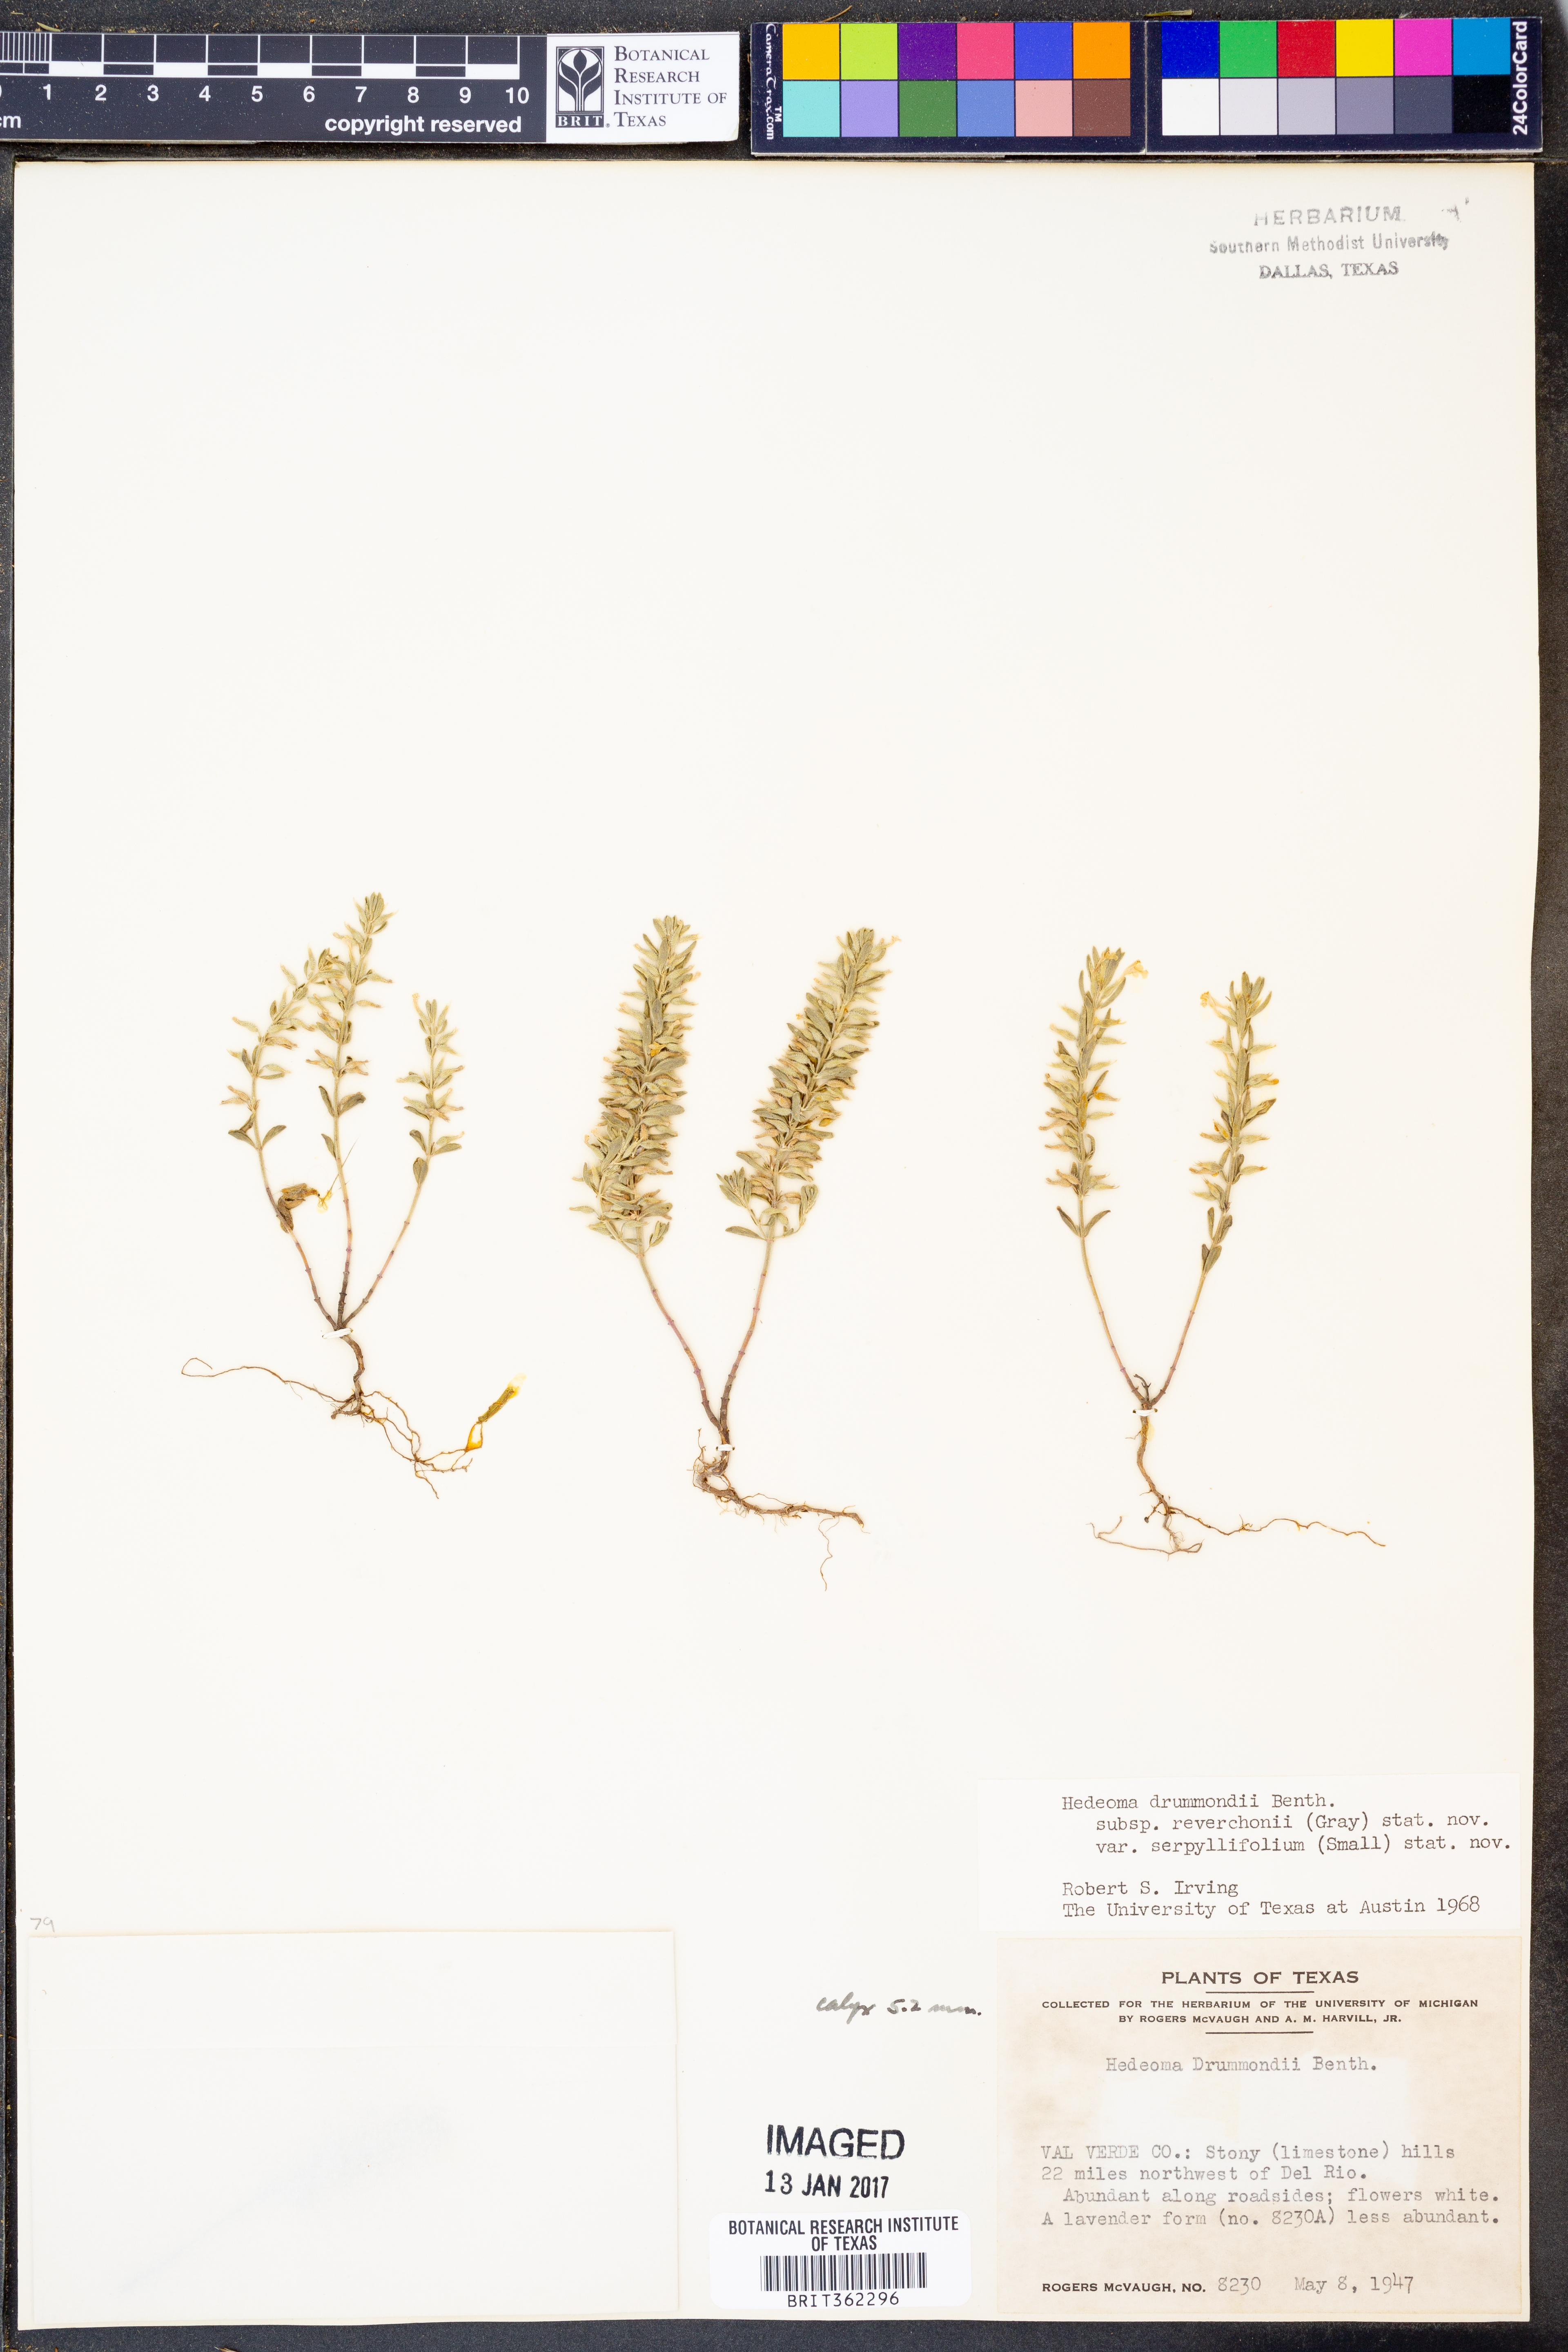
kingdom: Plantae
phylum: Tracheophyta
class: Magnoliopsida
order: Lamiales
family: Lamiaceae
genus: Hedeoma
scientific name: Hedeoma reverchonii
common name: Reverchon's false penny-royal
